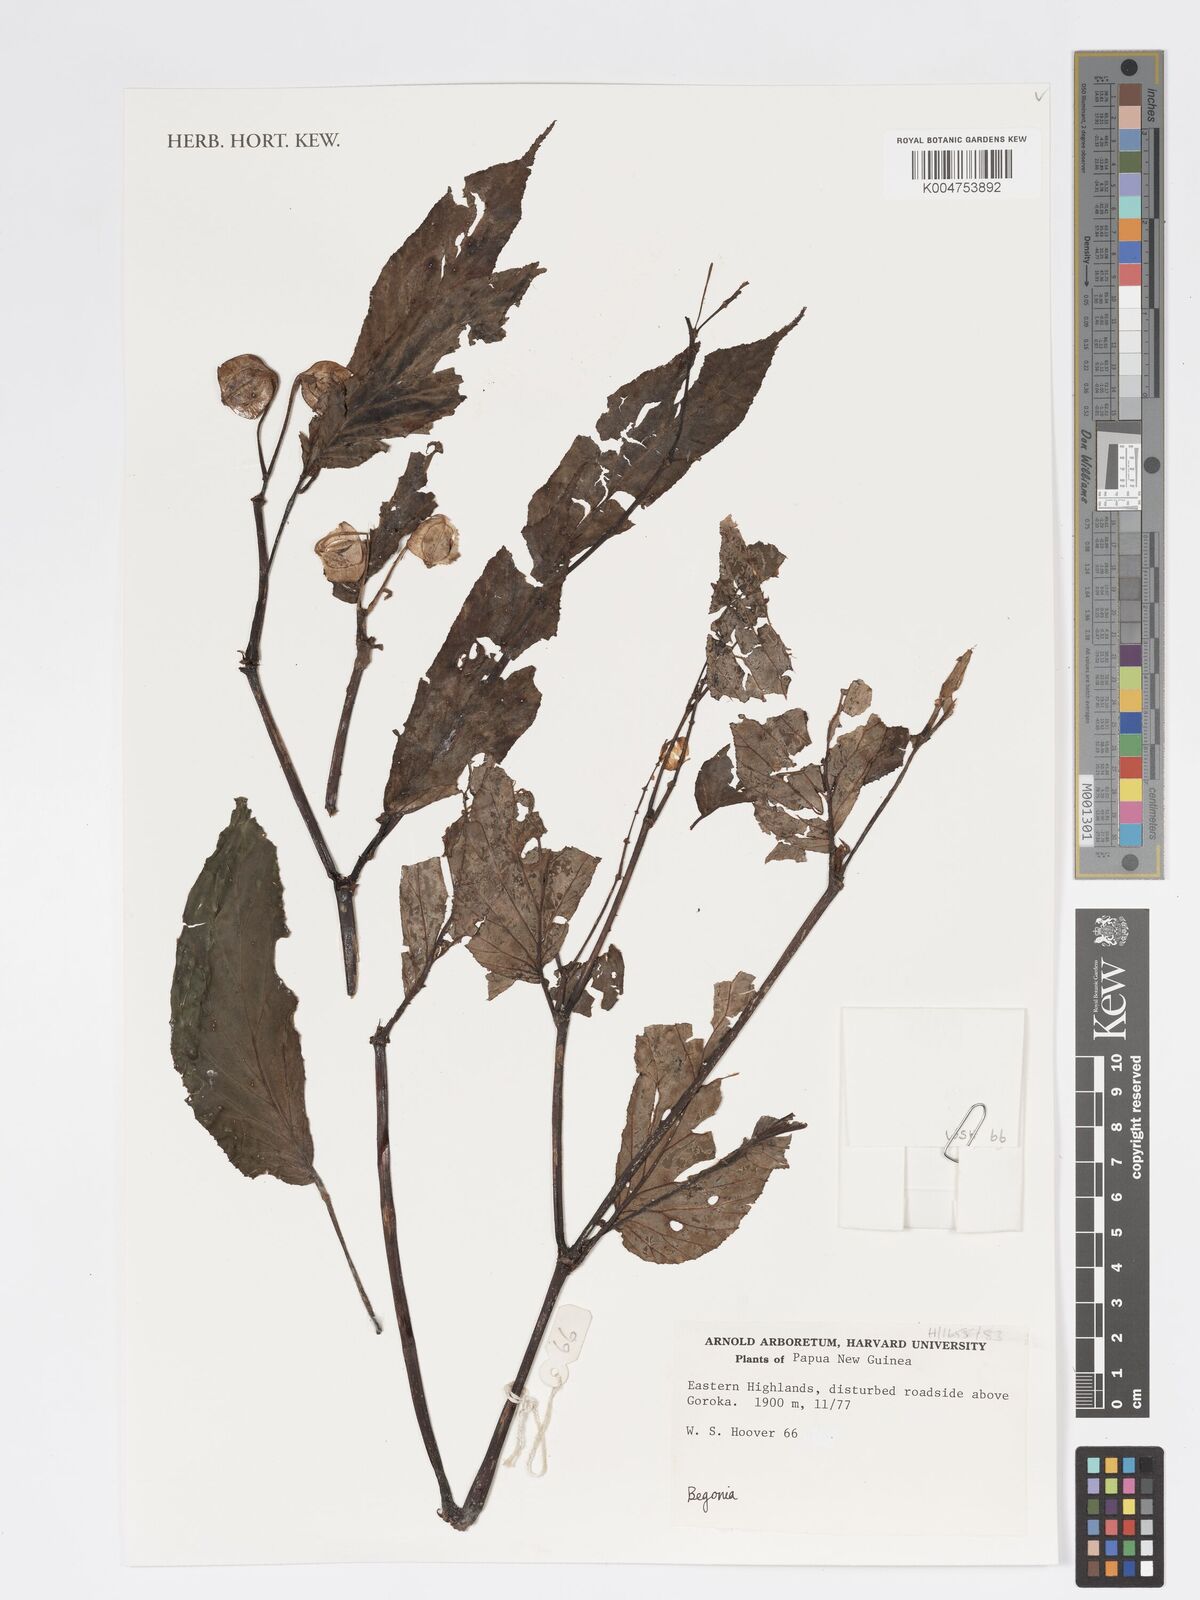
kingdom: Plantae
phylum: Tracheophyta
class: Magnoliopsida
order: Cucurbitales
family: Begoniaceae
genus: Begonia
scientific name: Begonia
